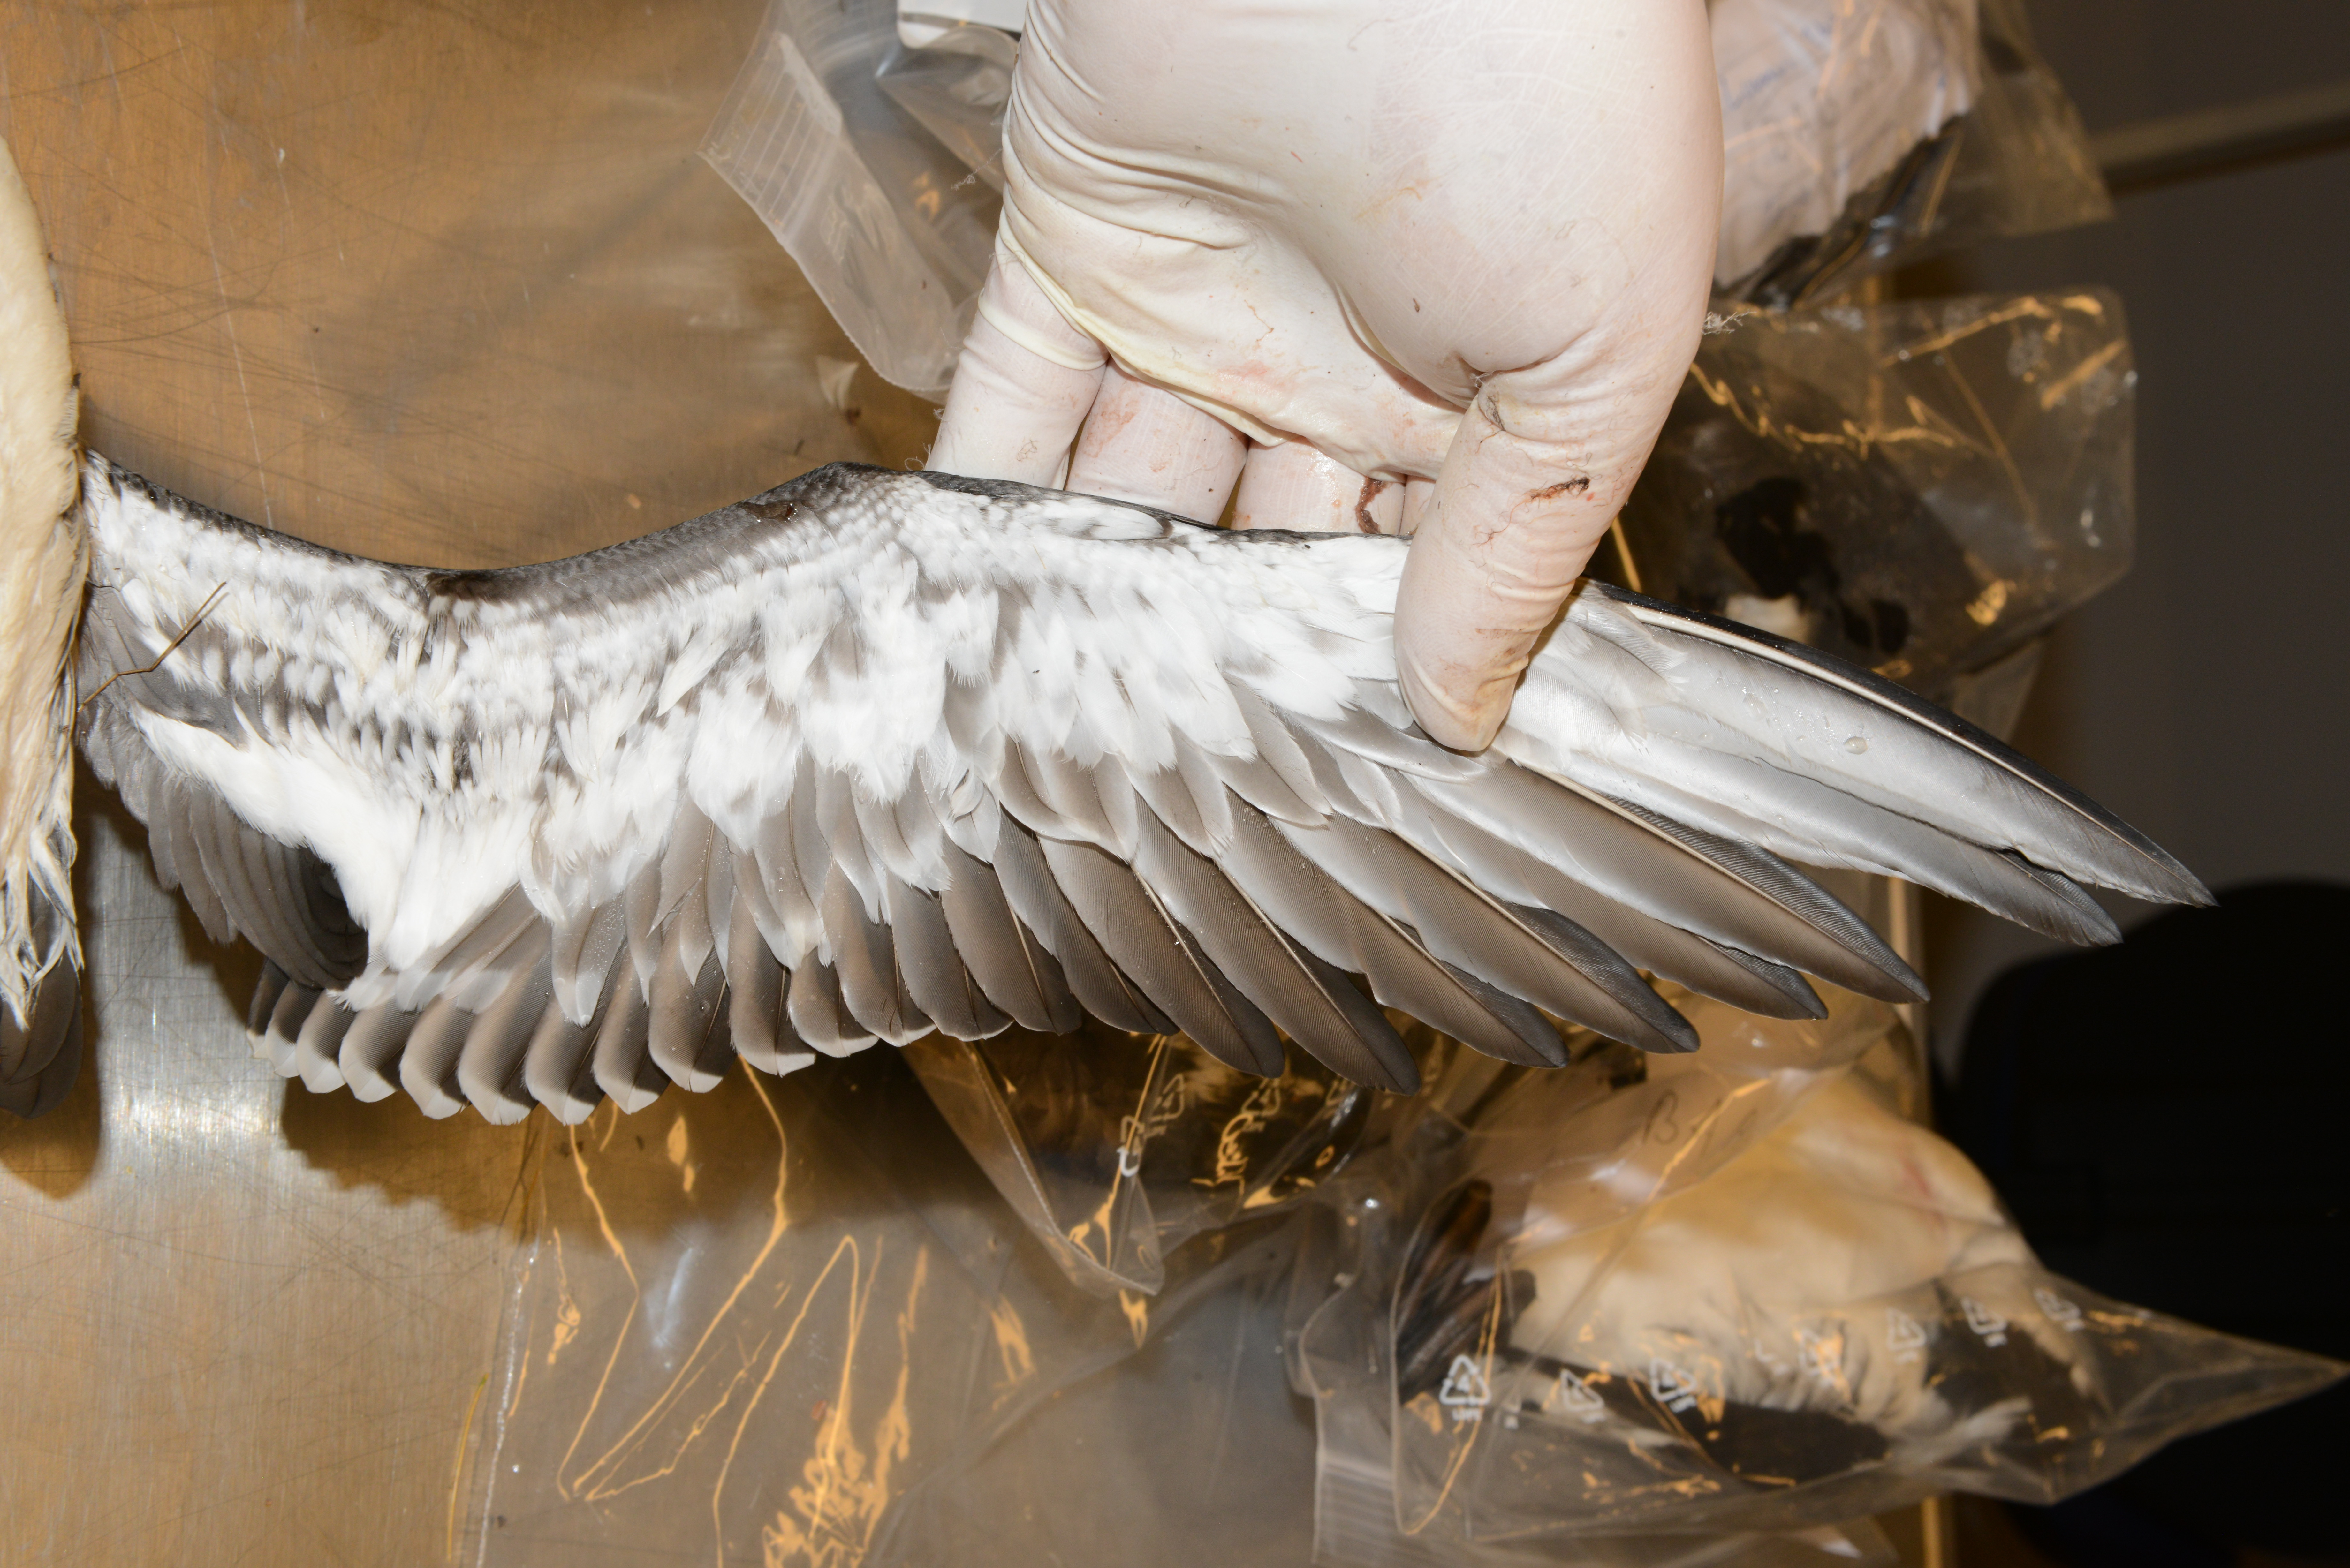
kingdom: Animalia
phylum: Chordata
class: Aves
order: Charadriiformes
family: Alcidae
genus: Uria
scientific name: Uria aalge
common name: Common murre
